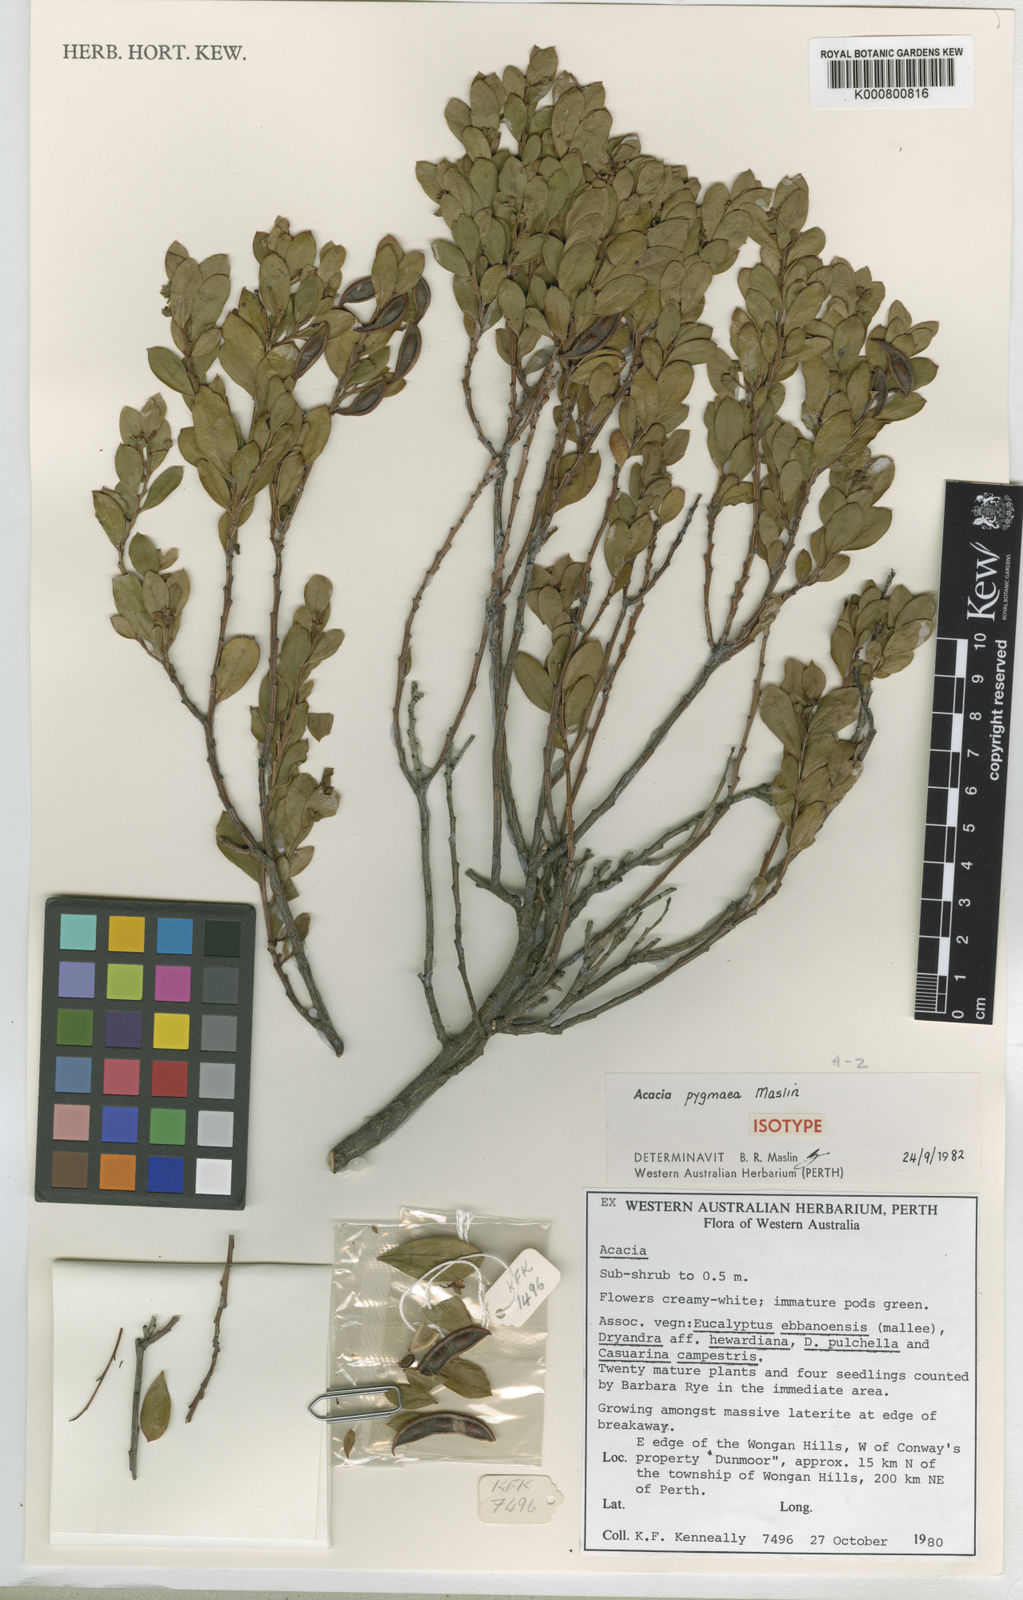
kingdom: Plantae
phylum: Tracheophyta
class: Magnoliopsida
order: Fabales
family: Fabaceae
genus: Acacia
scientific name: Acacia pygmaea
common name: Dwarf rock wattle
